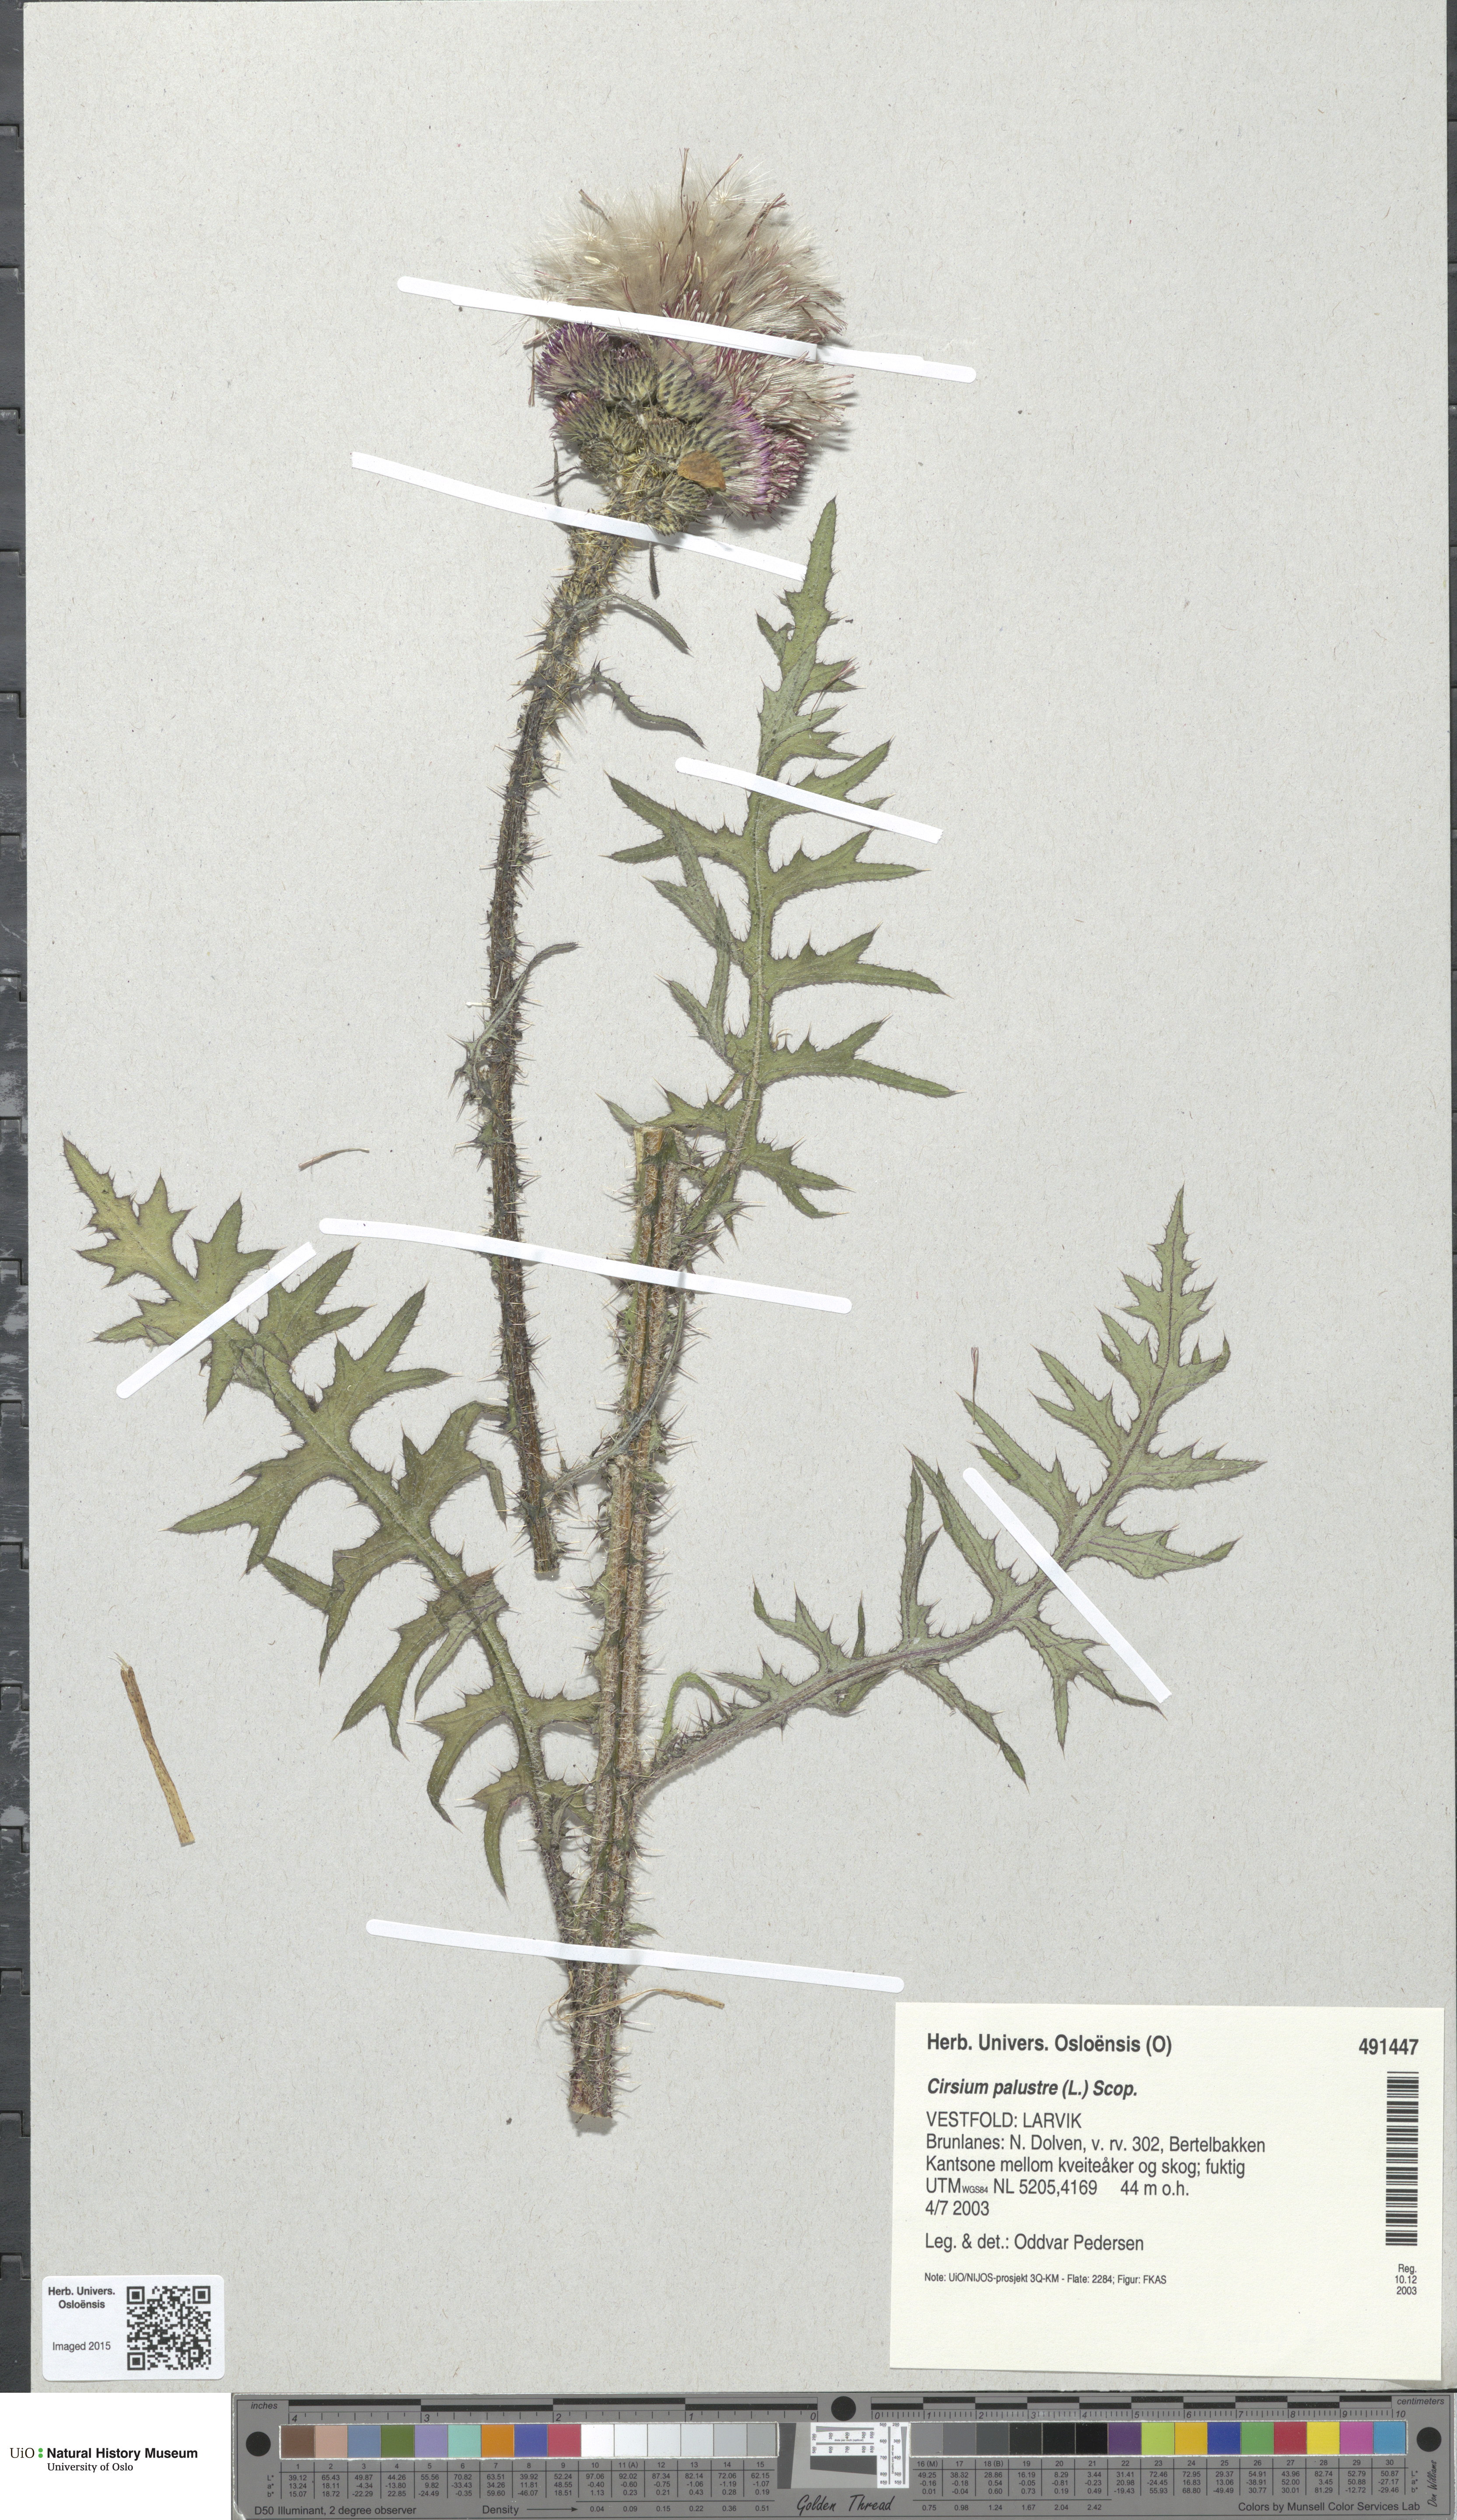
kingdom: Plantae
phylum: Tracheophyta
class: Magnoliopsida
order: Asterales
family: Asteraceae
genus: Cirsium
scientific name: Cirsium palustre
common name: Marsh thistle
